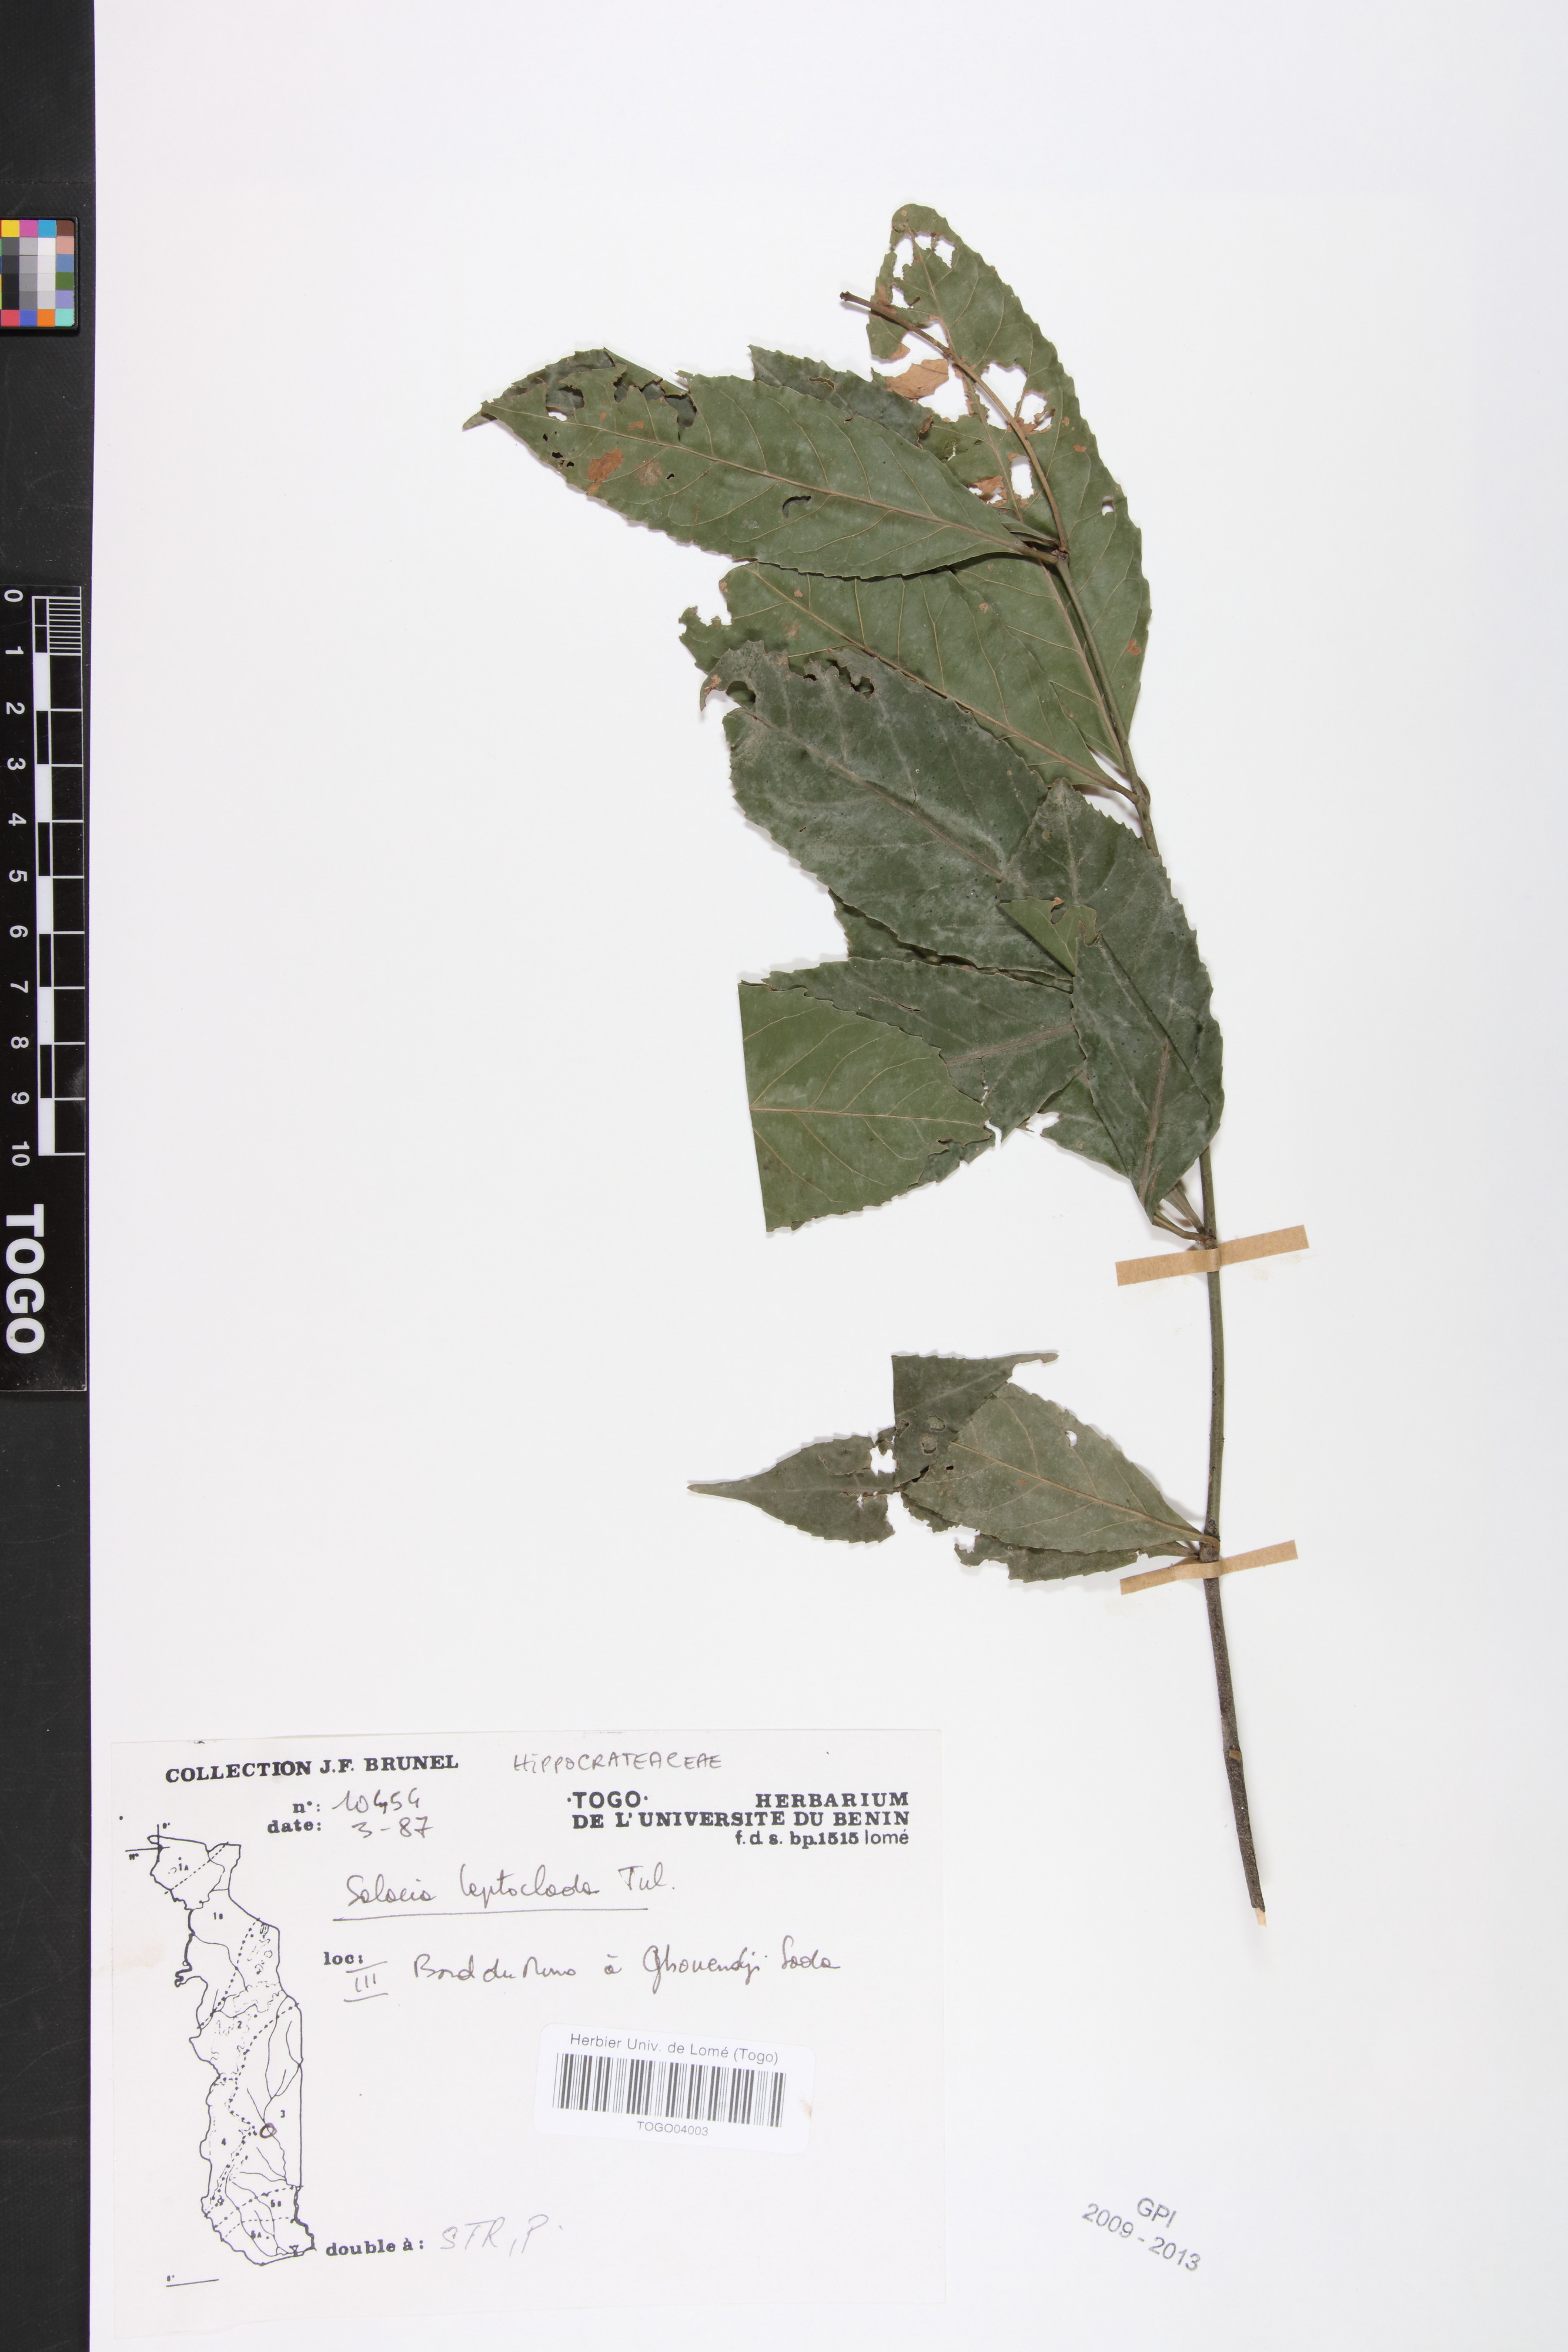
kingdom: Plantae
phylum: Tracheophyta
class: Magnoliopsida
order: Celastrales
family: Celastraceae
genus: Salacia
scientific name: Salacia leptoclada
